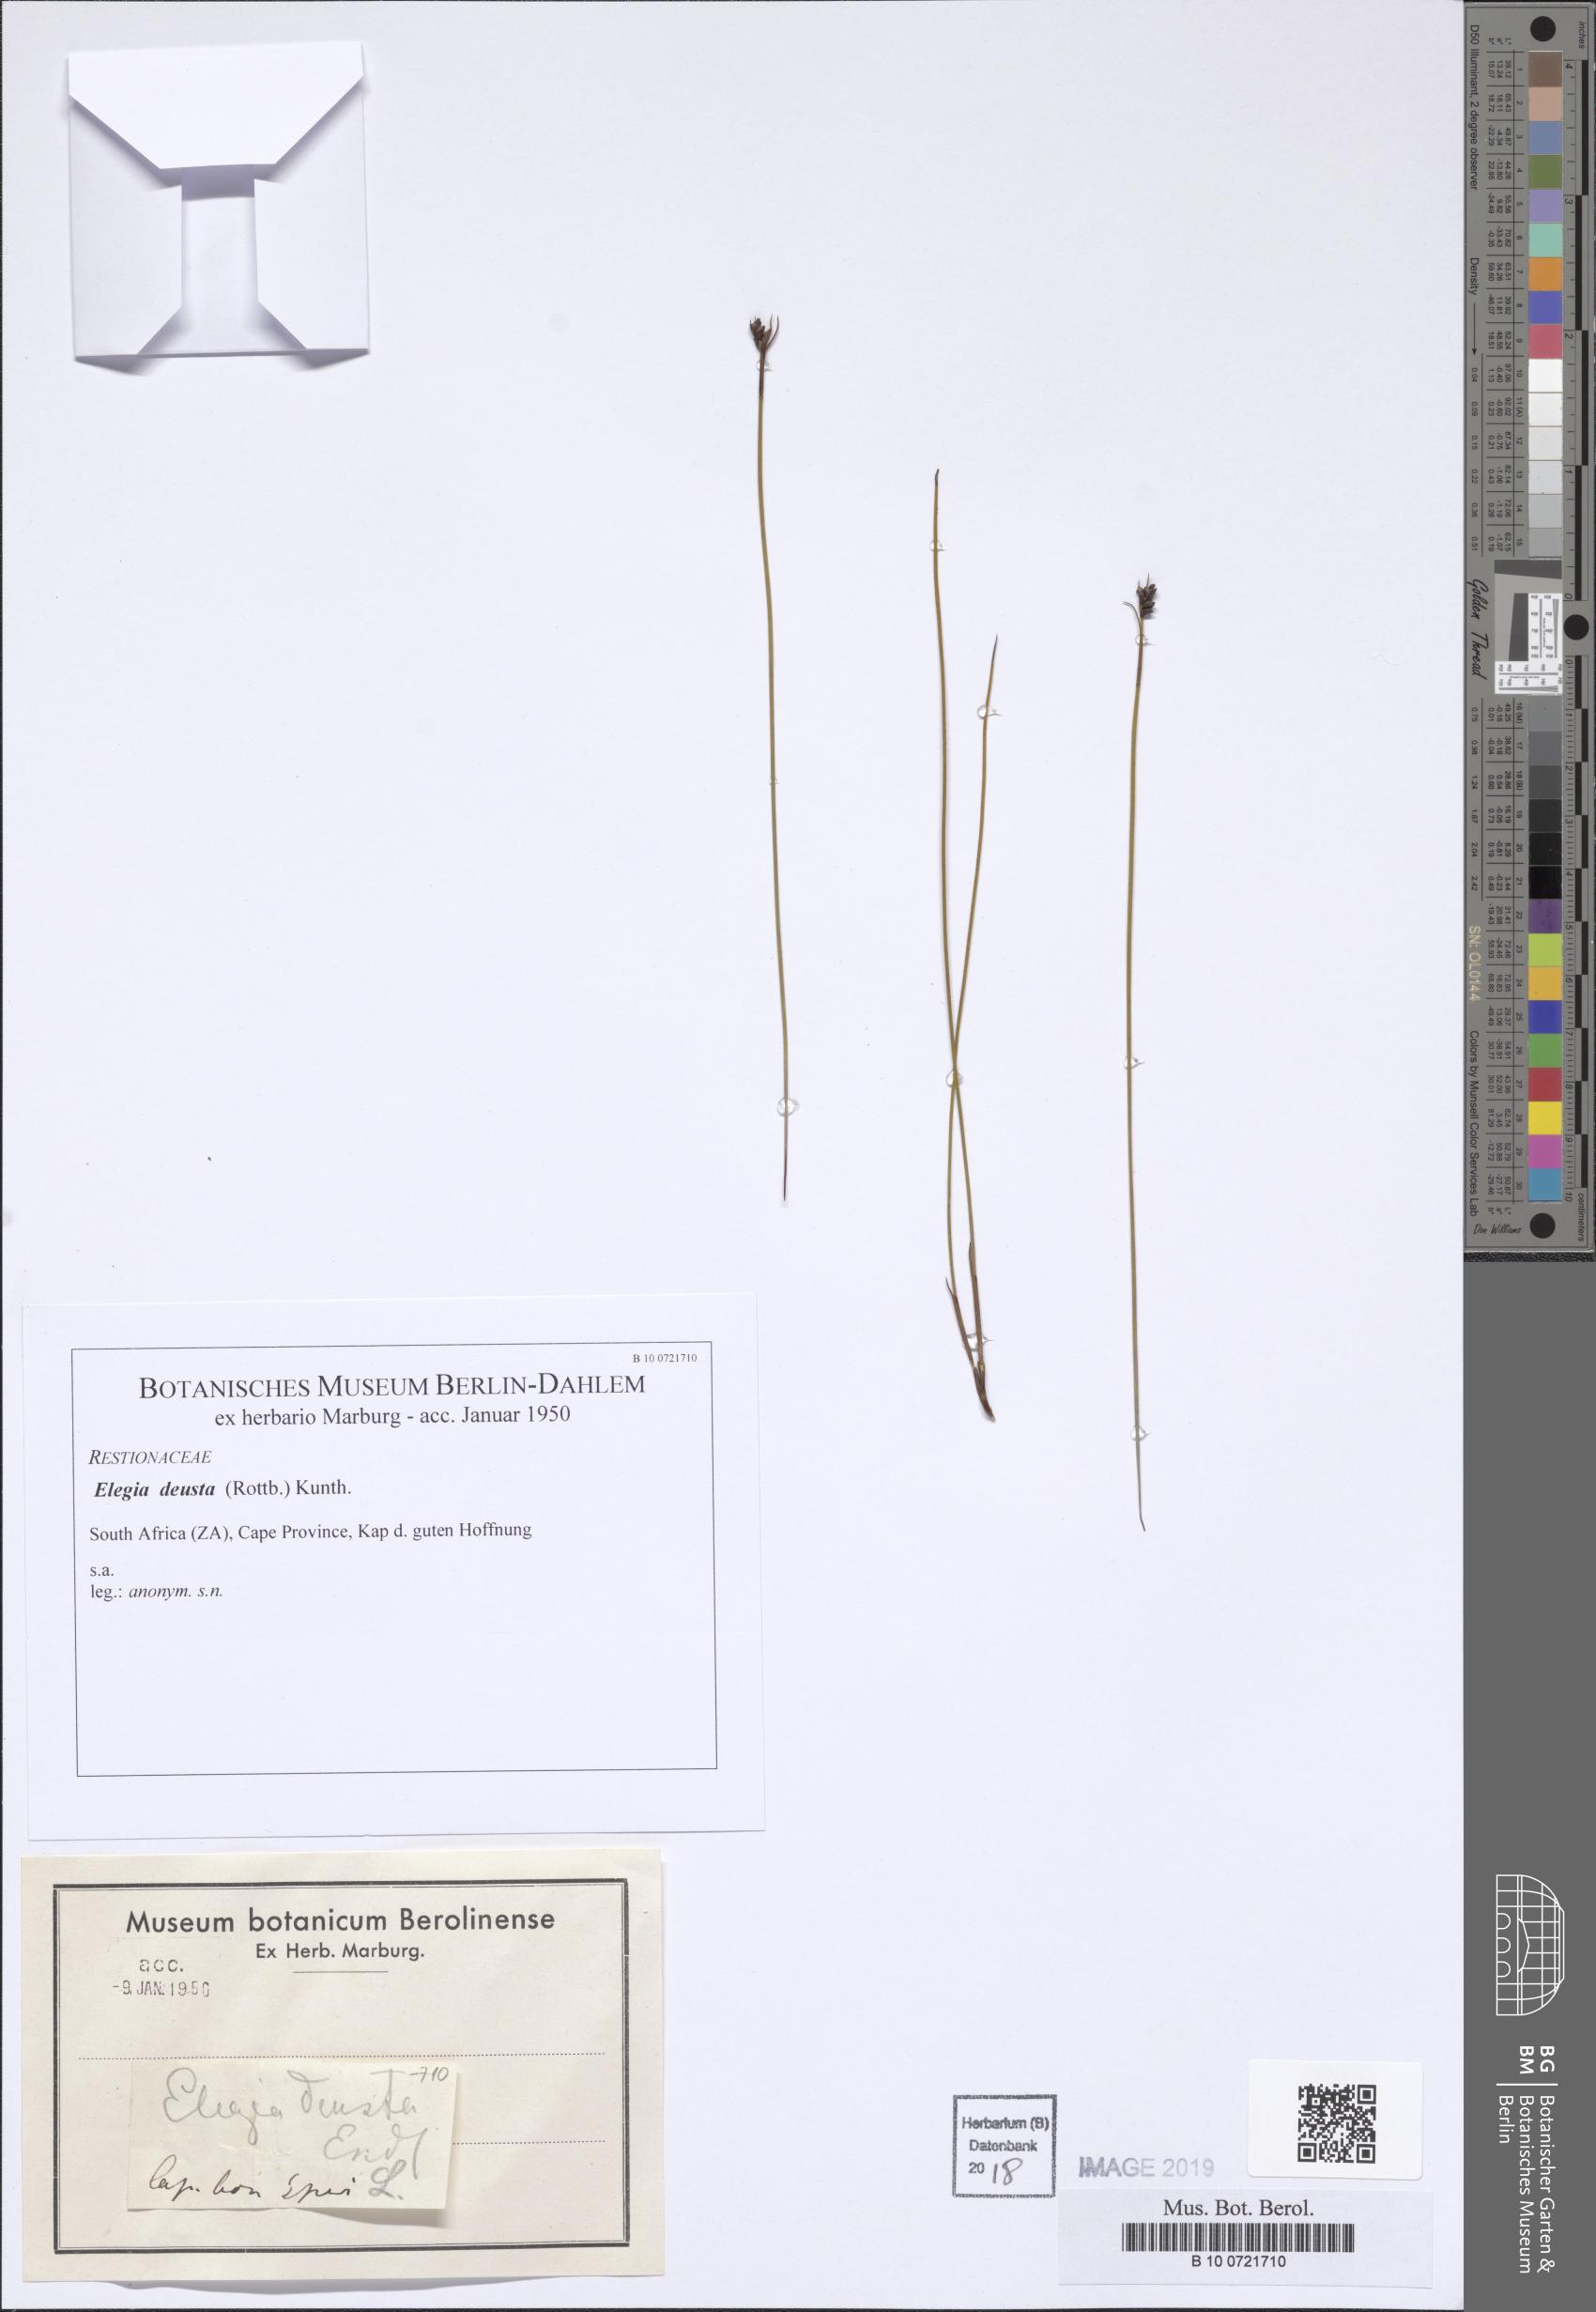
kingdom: Plantae
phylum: Tracheophyta
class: Liliopsida
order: Poales
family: Restionaceae
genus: Elegia
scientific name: Elegia deusta
